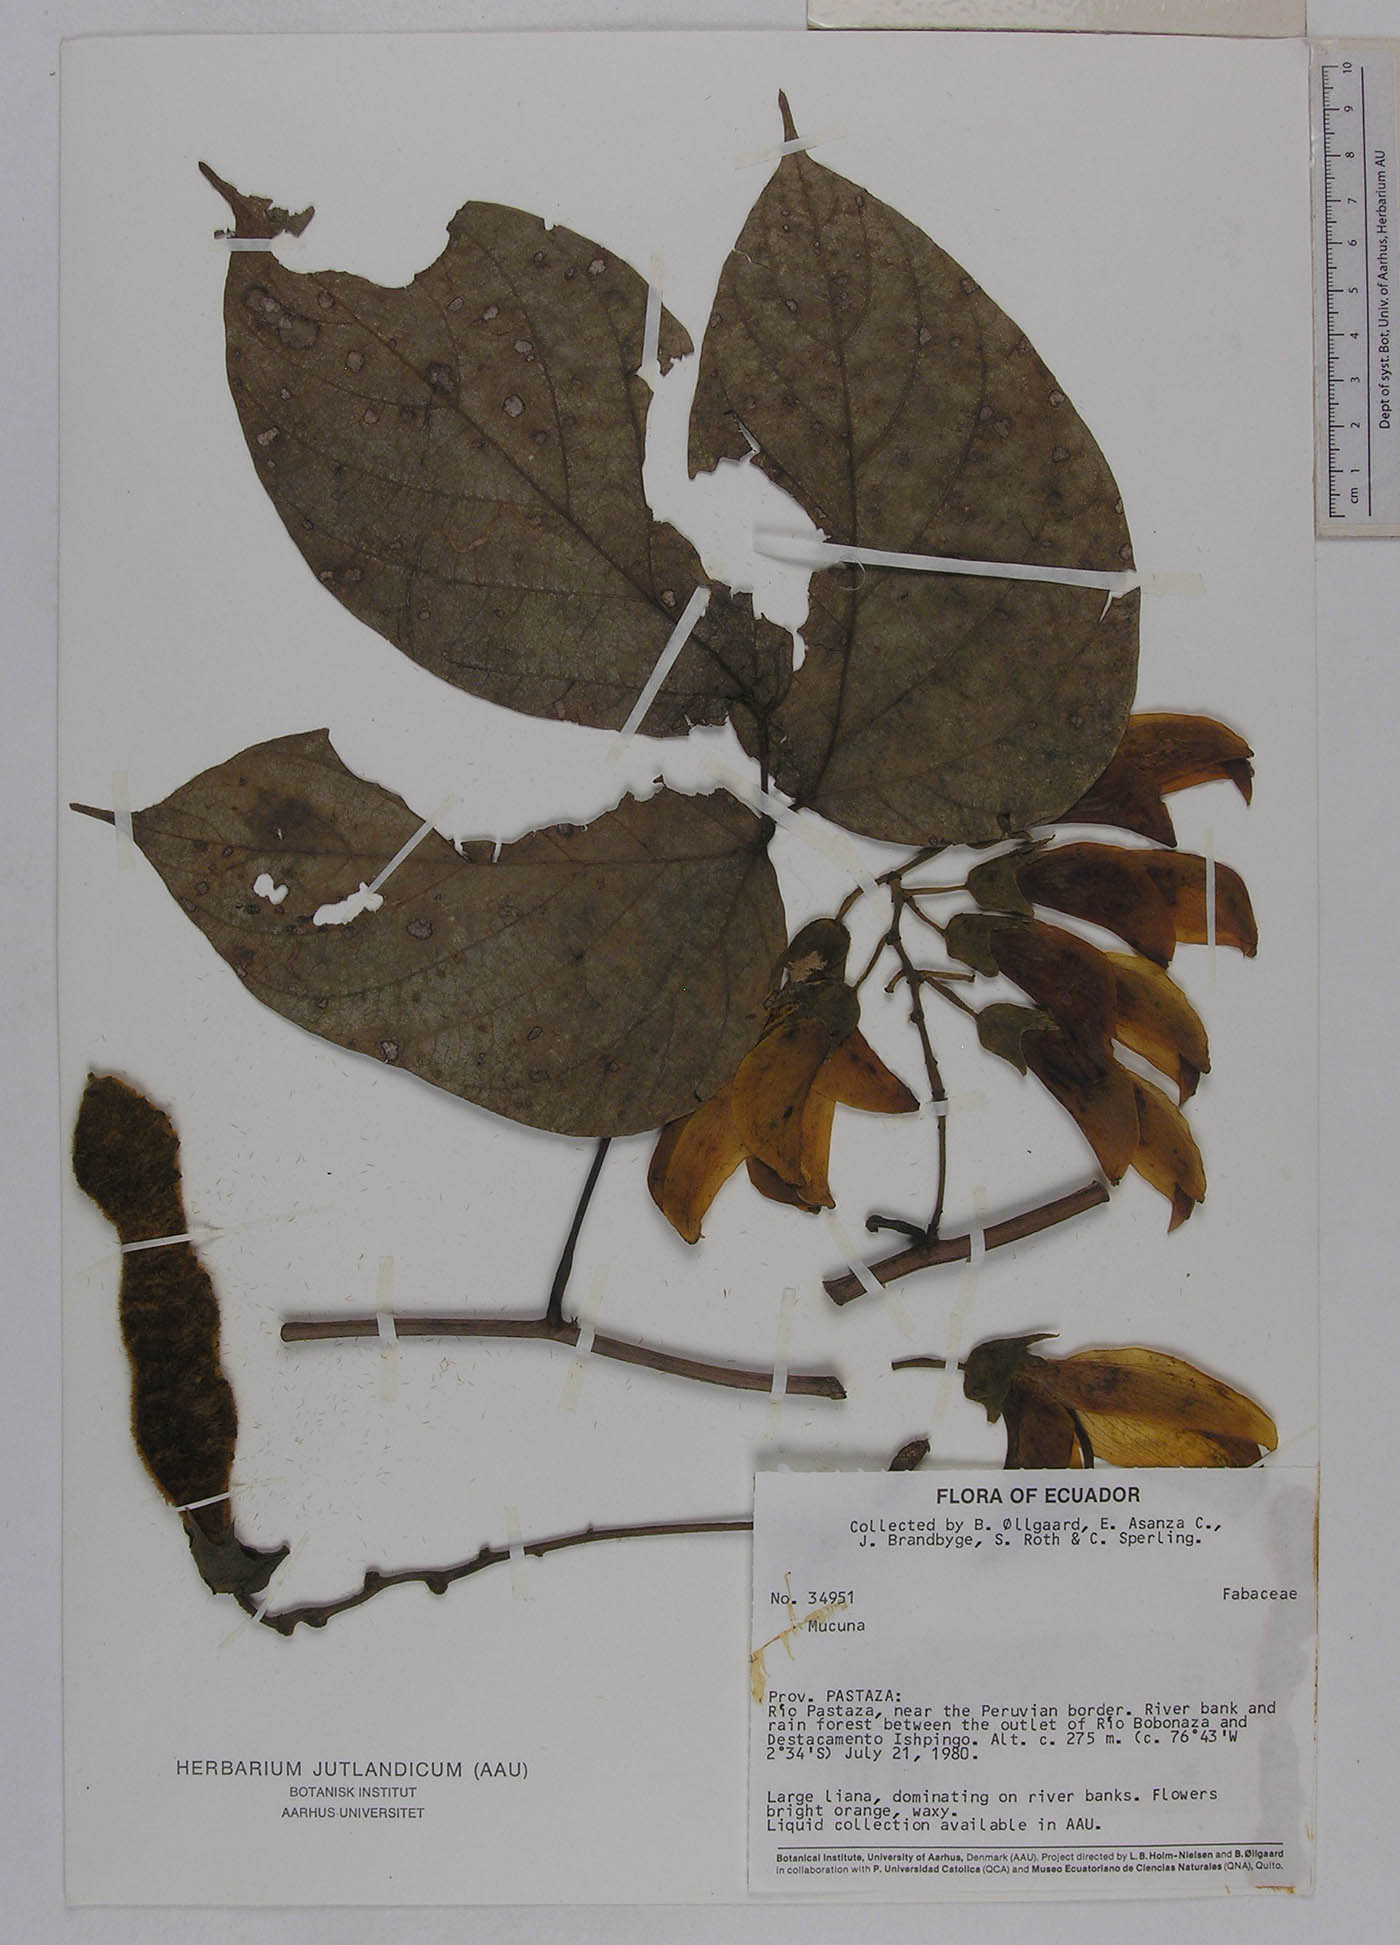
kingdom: Plantae
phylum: Tracheophyta
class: Magnoliopsida
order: Fabales
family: Fabaceae
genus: Mucuna
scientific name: Mucuna rostrata
